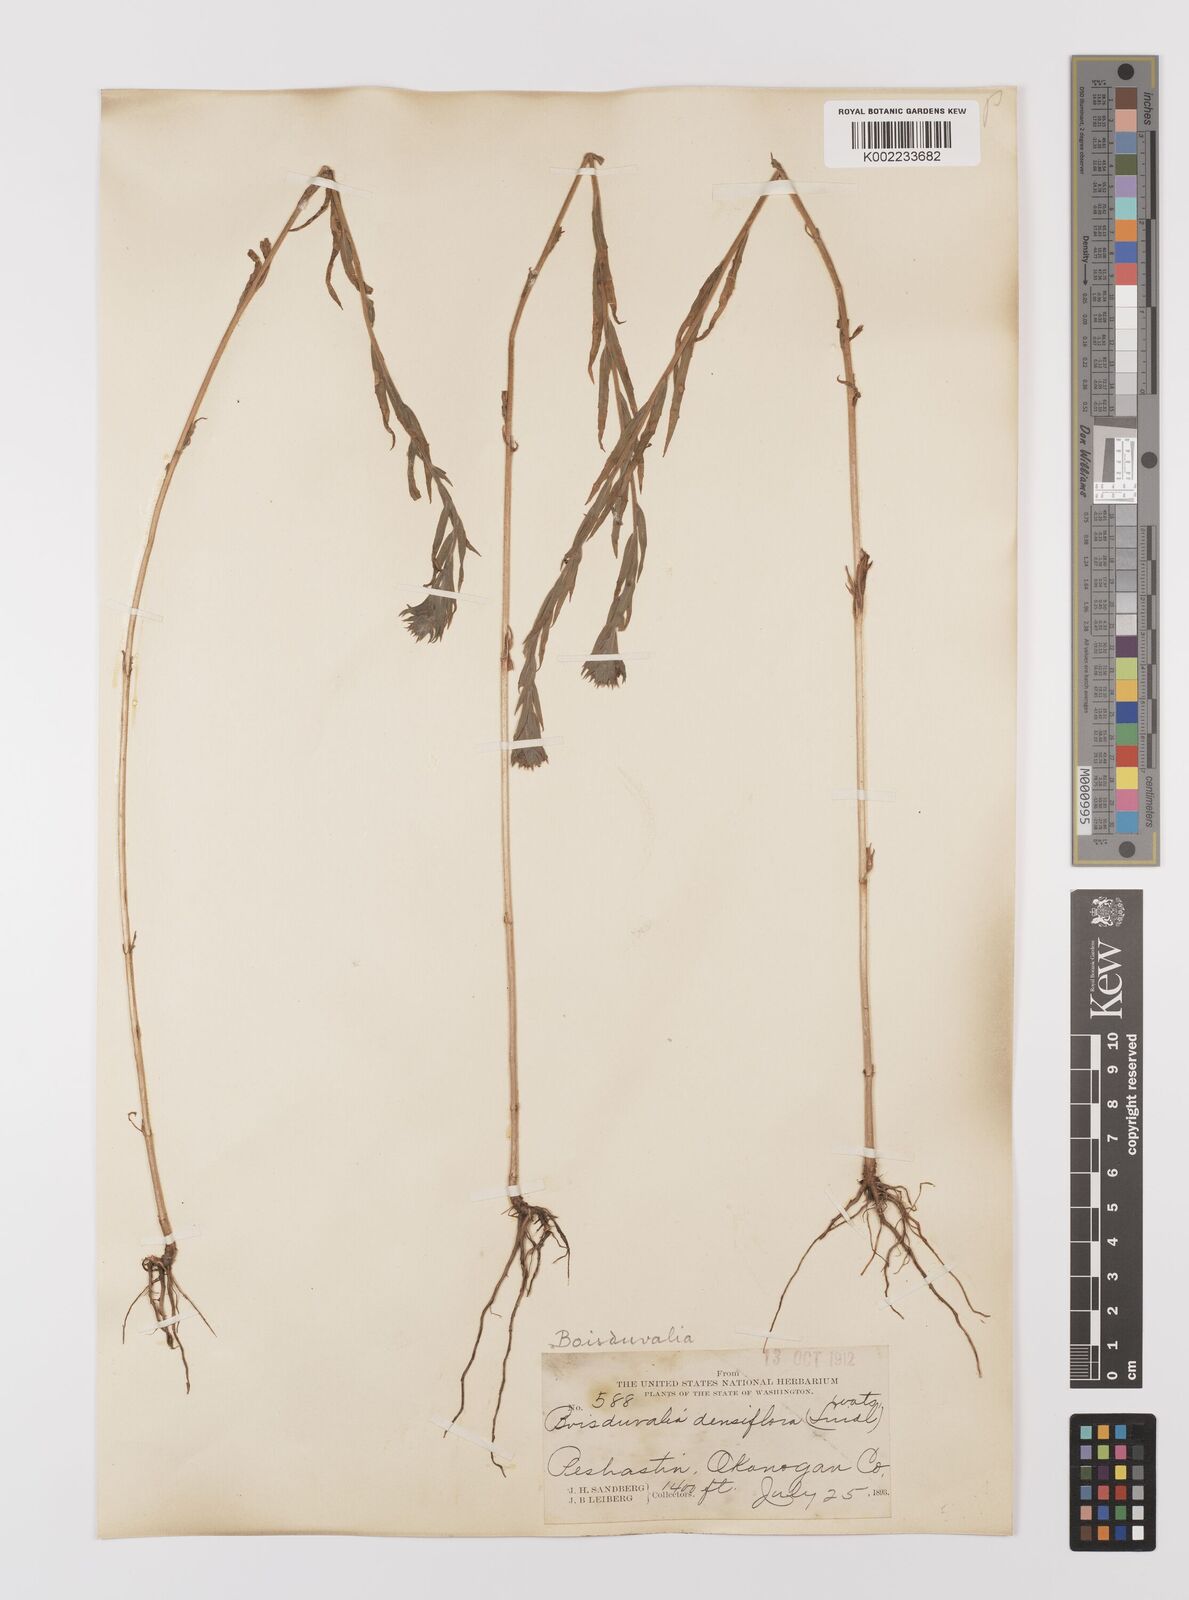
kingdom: Plantae
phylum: Tracheophyta
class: Magnoliopsida
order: Myrtales
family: Onagraceae
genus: Epilobium
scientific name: Epilobium densiflorum
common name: Dense spike-primrose
